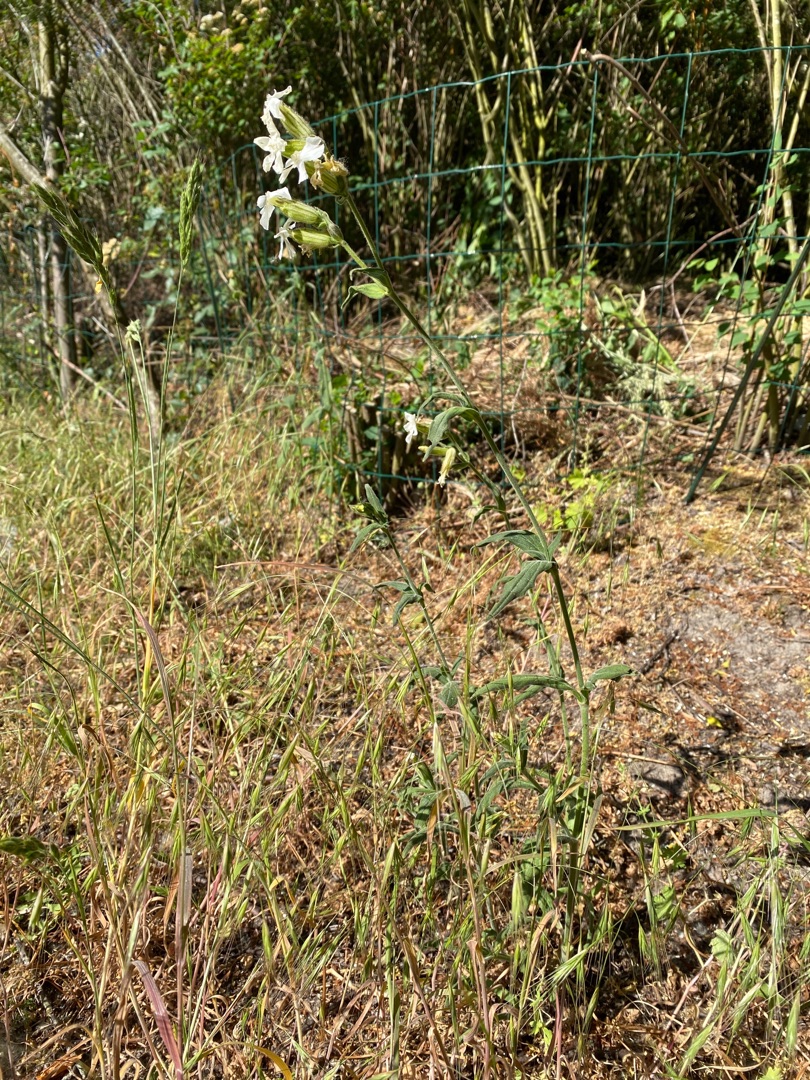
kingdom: Plantae
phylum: Tracheophyta
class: Magnoliopsida
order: Caryophyllales
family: Caryophyllaceae
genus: Silene
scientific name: Silene latifolia
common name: Aftenpragtstjerne
